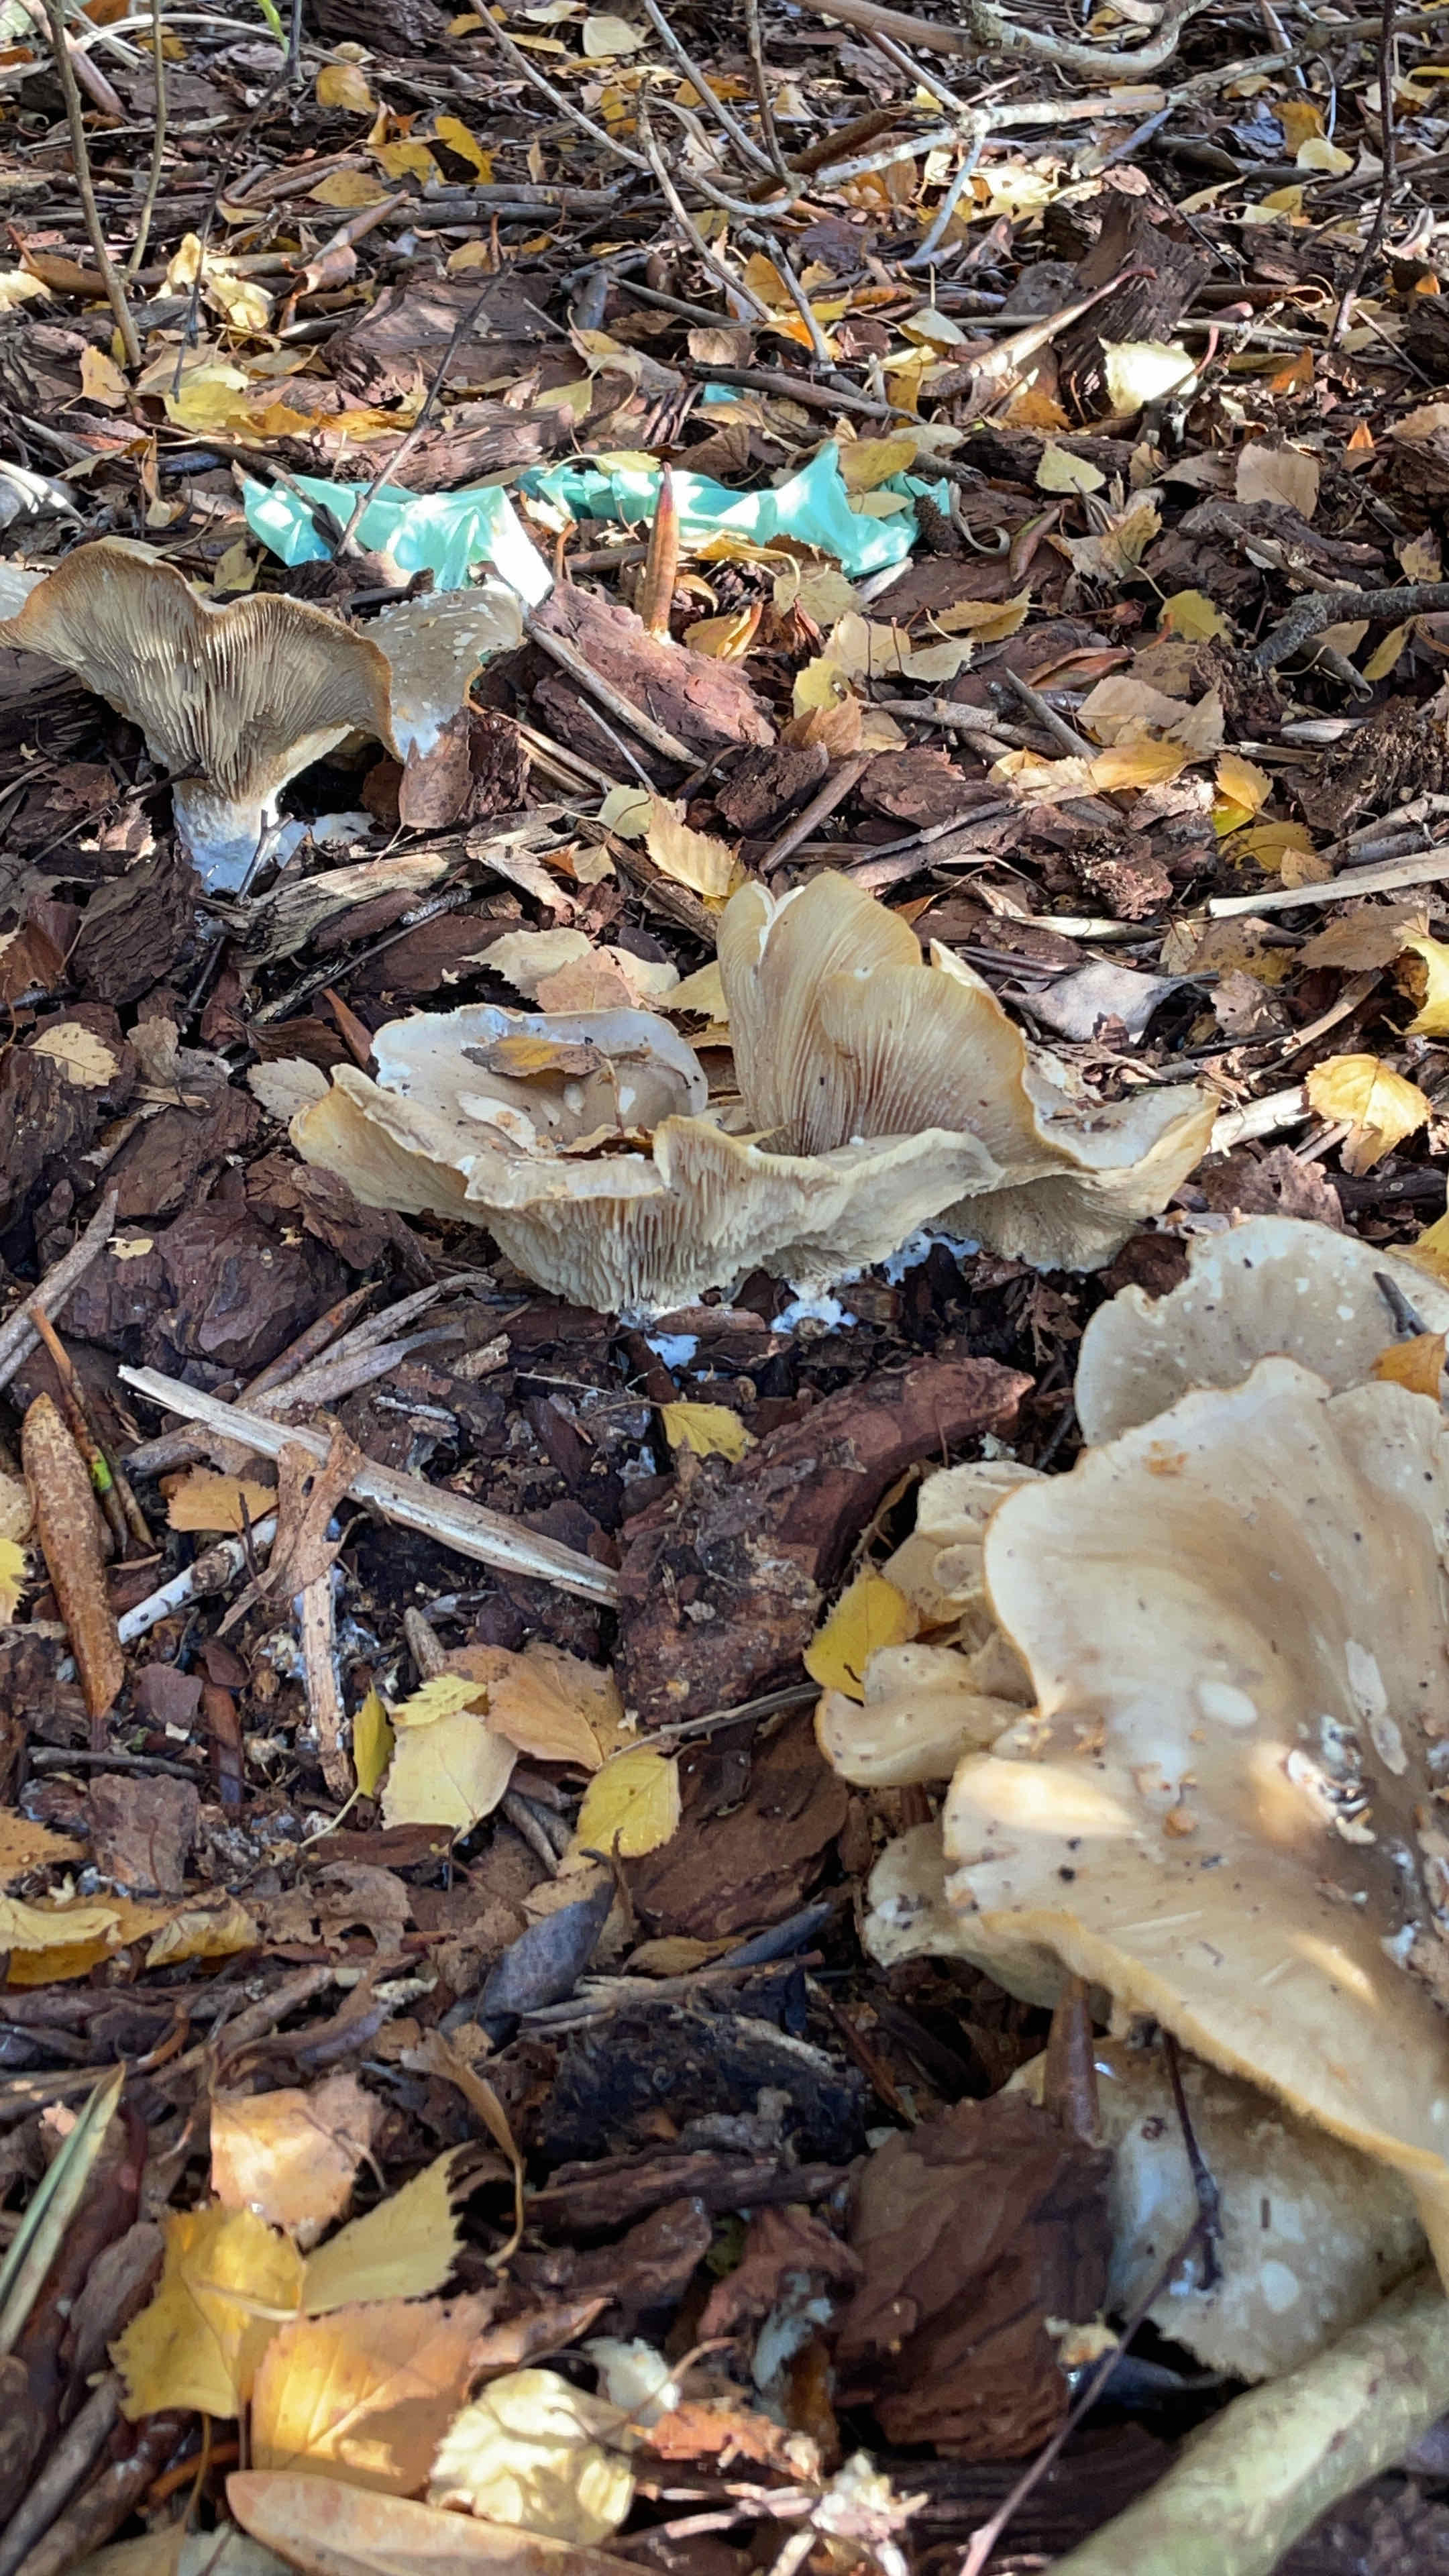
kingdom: Fungi
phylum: Basidiomycota
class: Agaricomycetes
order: Agaricales
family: Tricholomataceae
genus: Clitocybe
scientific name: Clitocybe nebularis
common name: tåge-tragthat
